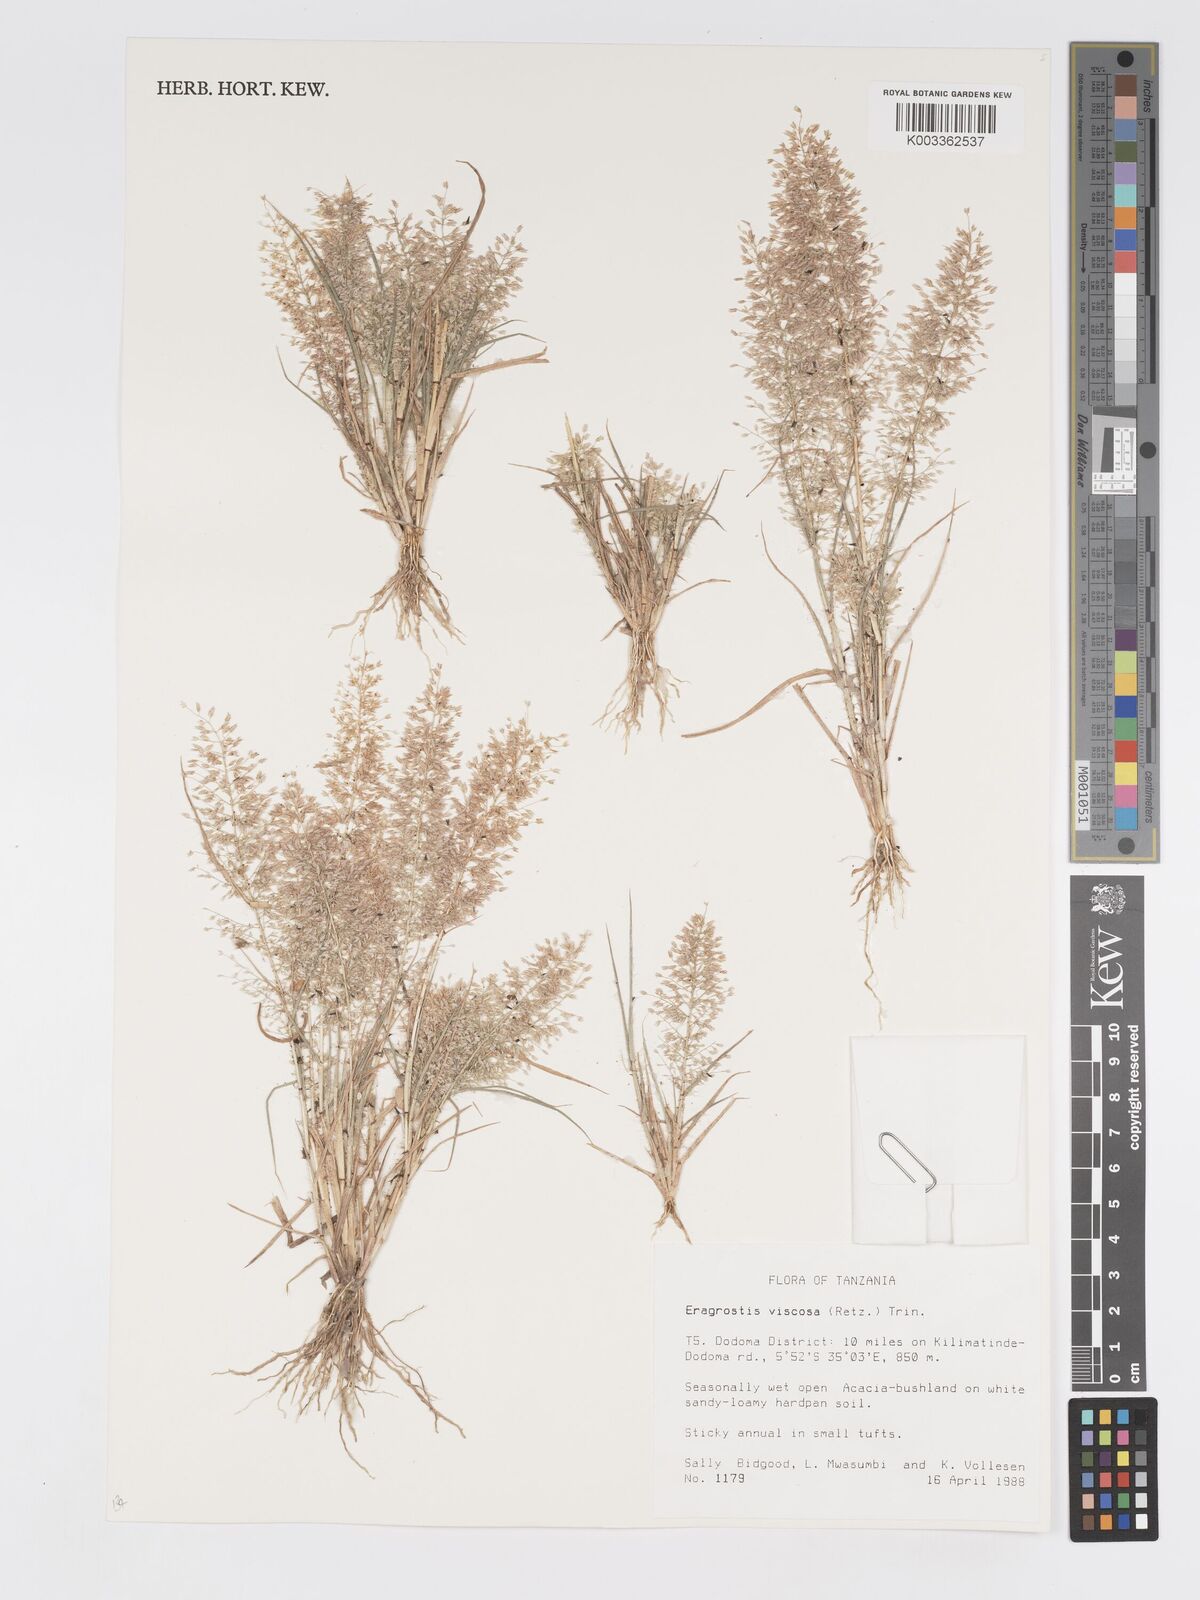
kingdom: Plantae
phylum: Tracheophyta
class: Liliopsida
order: Poales
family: Poaceae
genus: Eragrostis
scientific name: Eragrostis viscosa
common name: Sticky love grass
